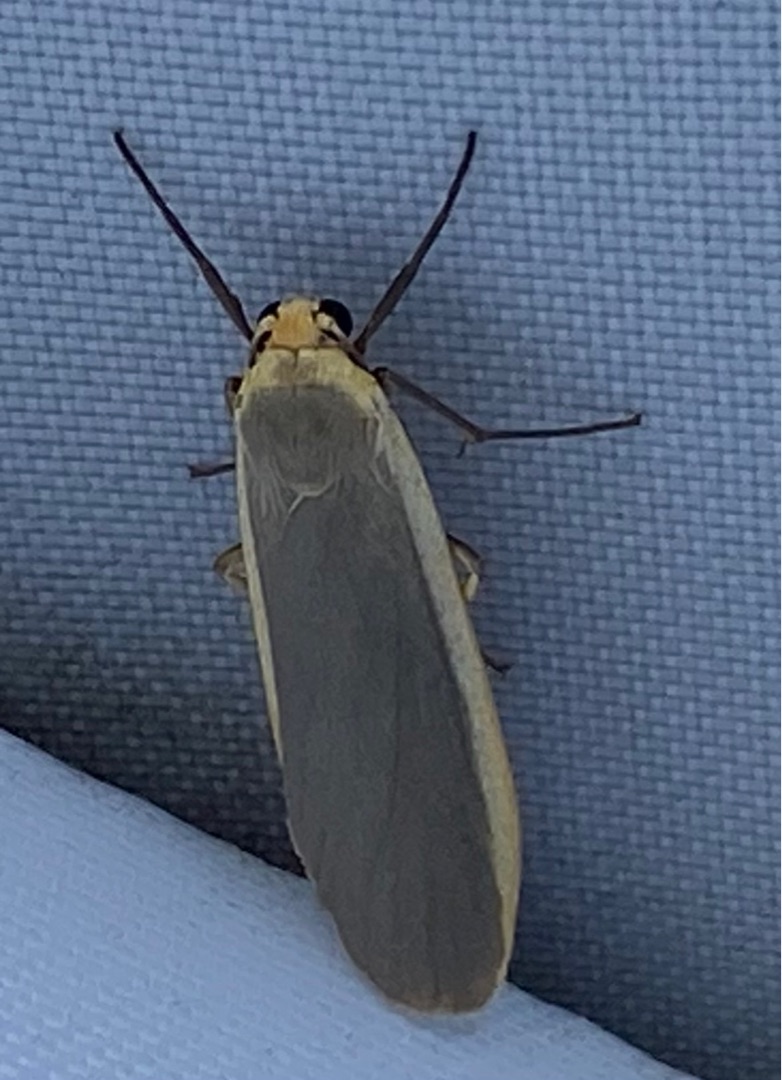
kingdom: Animalia
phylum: Arthropoda
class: Insecta
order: Lepidoptera
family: Erebidae
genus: Nyea
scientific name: Nyea lurideola
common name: Blygrå lavspinder
